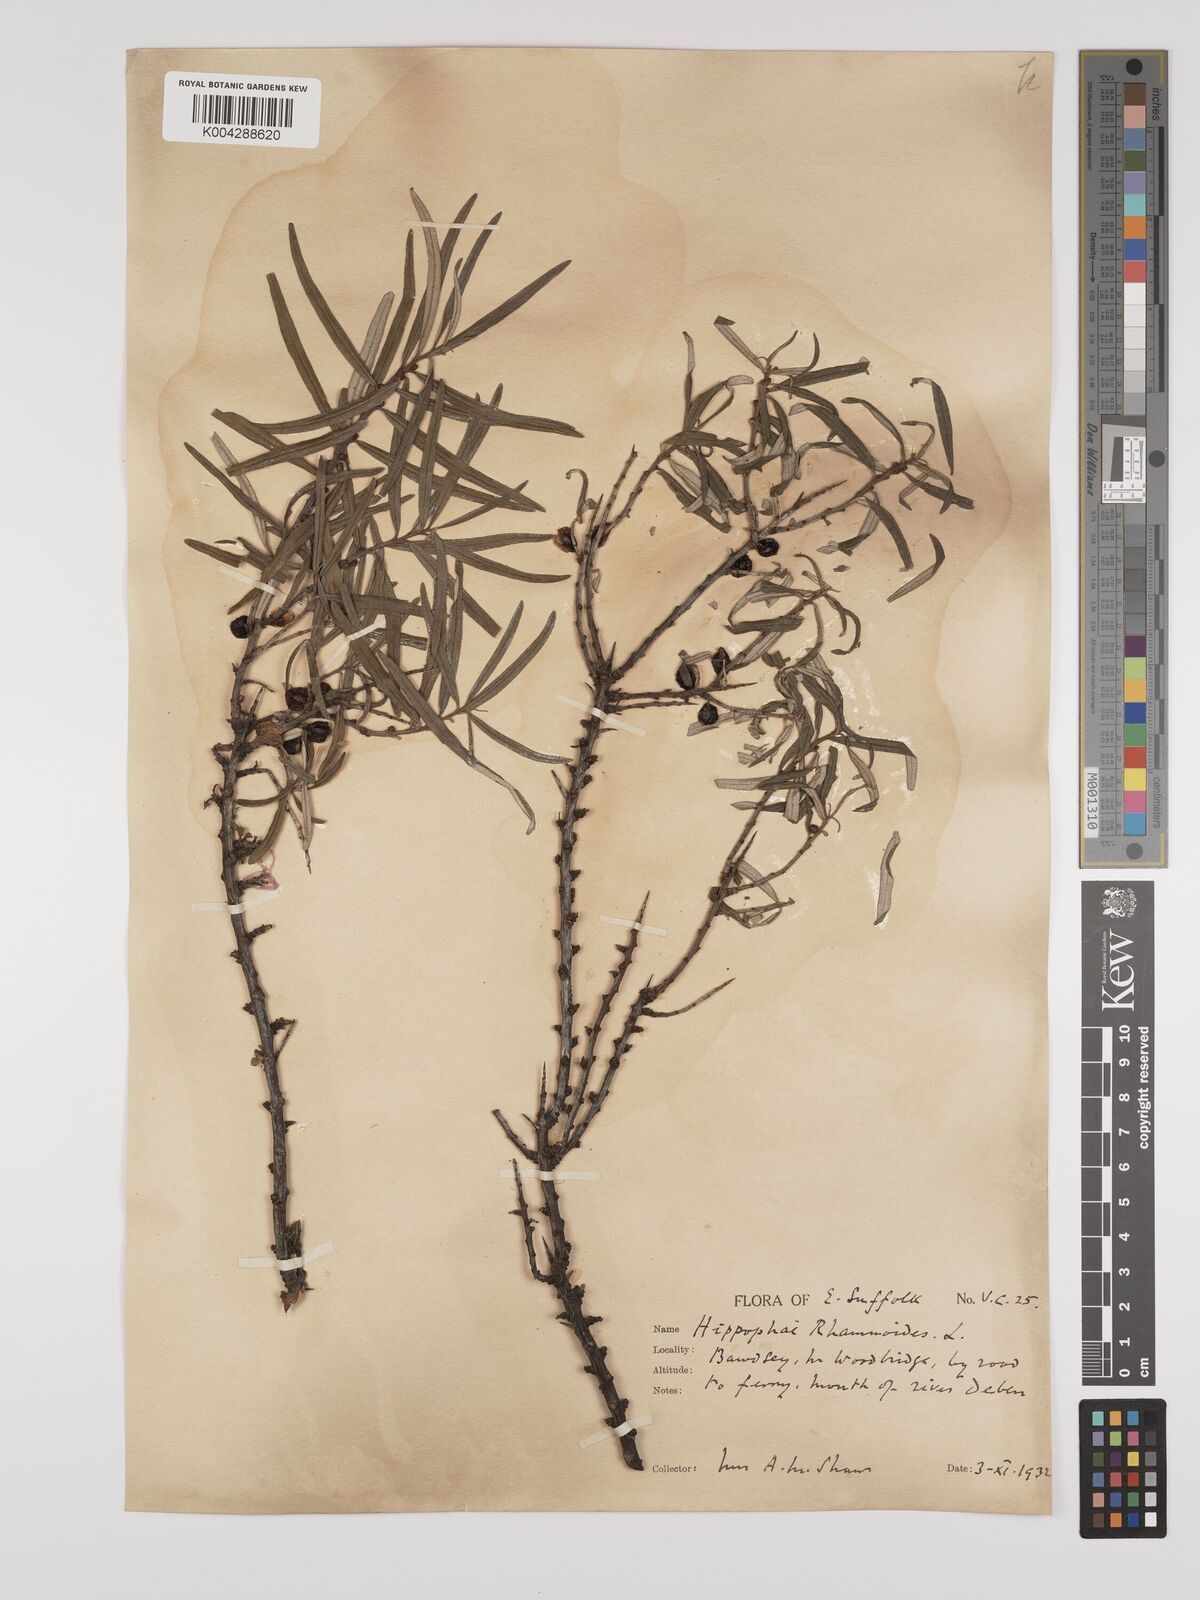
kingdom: Plantae
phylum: Tracheophyta
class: Magnoliopsida
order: Rosales
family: Elaeagnaceae
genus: Hippophae
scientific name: Hippophae rhamnoides
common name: Sea-buckthorn
